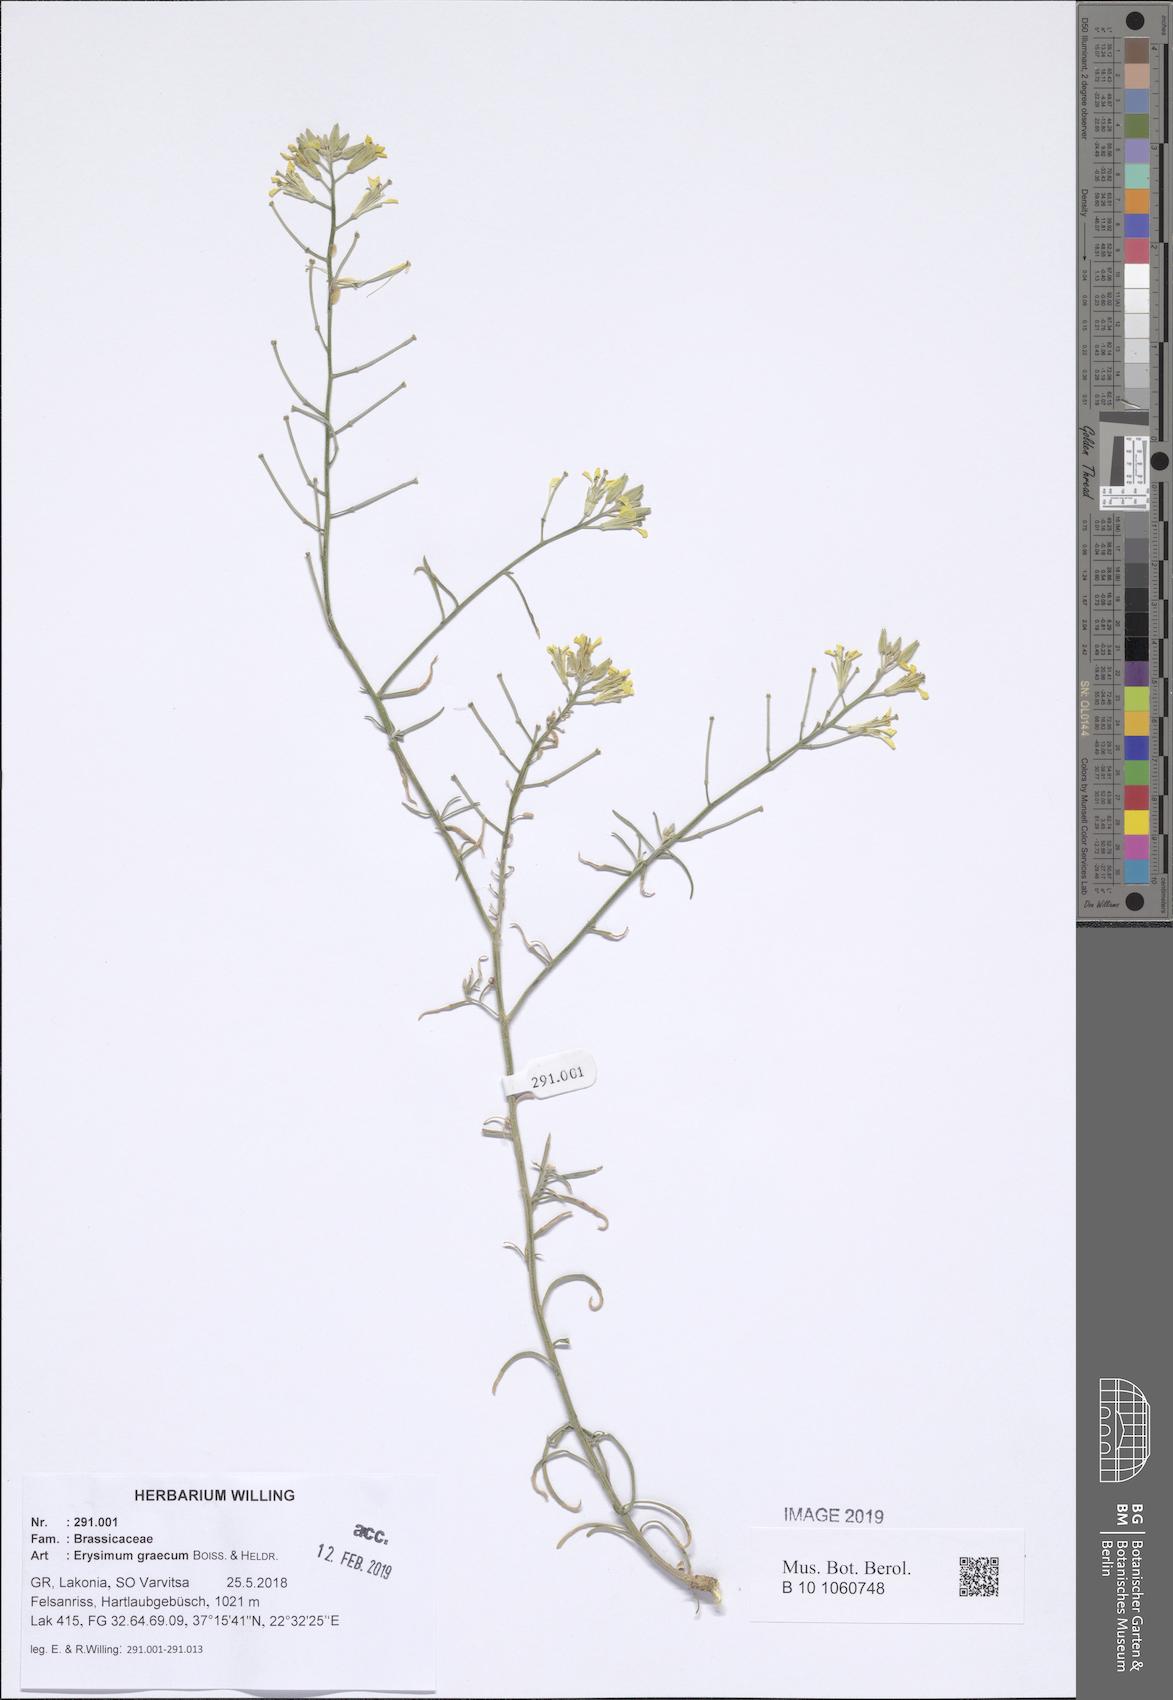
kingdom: Plantae
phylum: Tracheophyta
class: Magnoliopsida
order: Brassicales
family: Brassicaceae
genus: Erysimum
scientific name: Erysimum graecum
